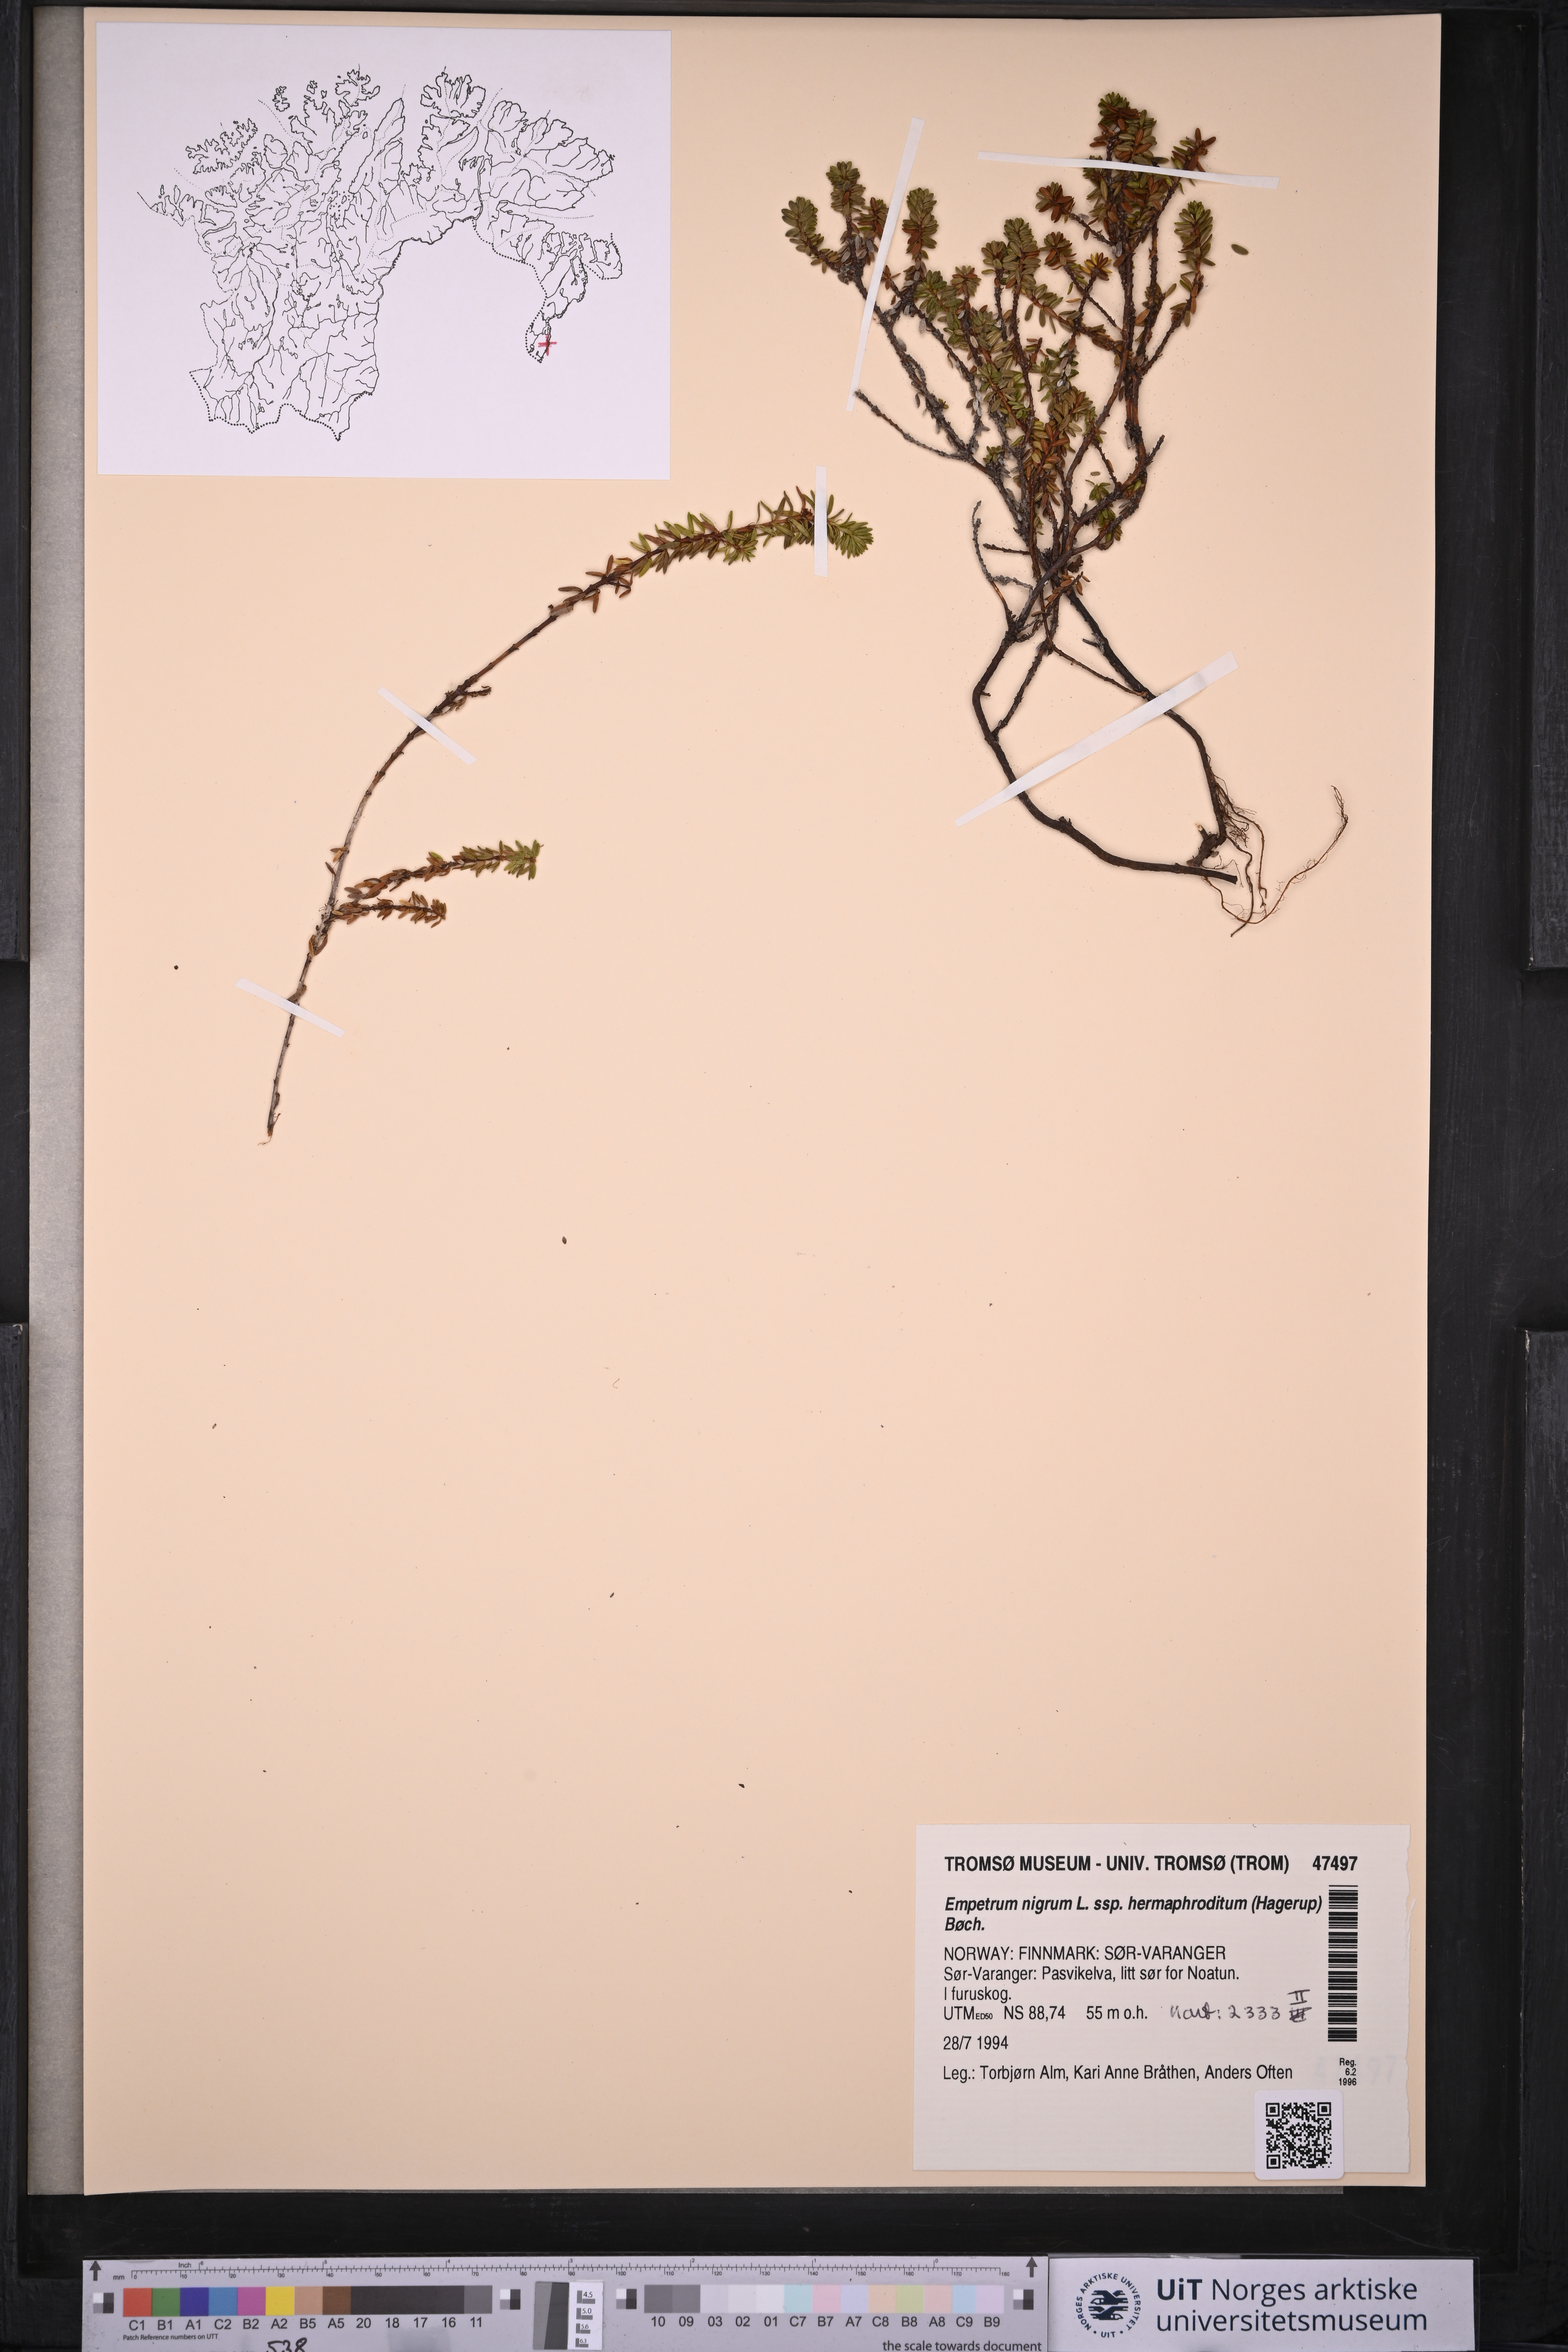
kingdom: Plantae
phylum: Tracheophyta
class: Magnoliopsida
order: Ericales
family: Ericaceae
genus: Empetrum
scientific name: Empetrum hermaphroditum
